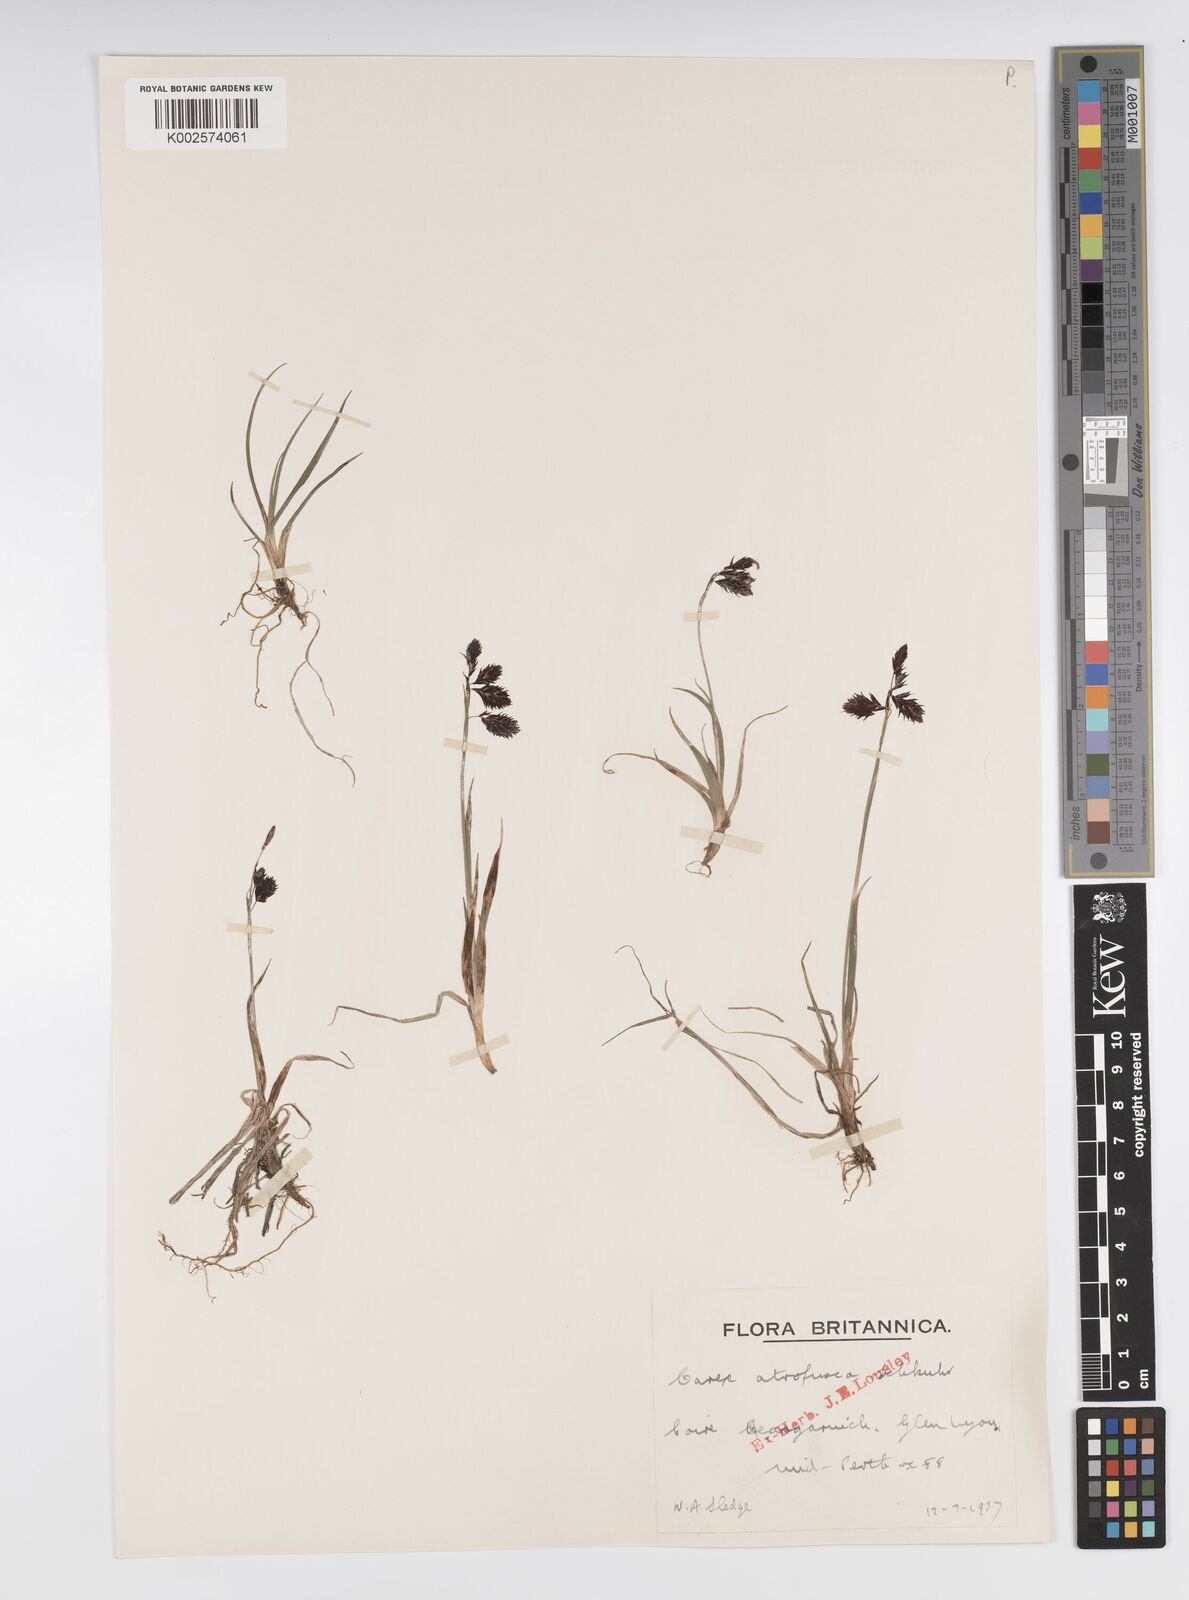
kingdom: Plantae
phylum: Tracheophyta
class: Liliopsida
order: Poales
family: Cyperaceae
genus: Carex
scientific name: Carex atrofusca
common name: Scorched alpine-sedge
